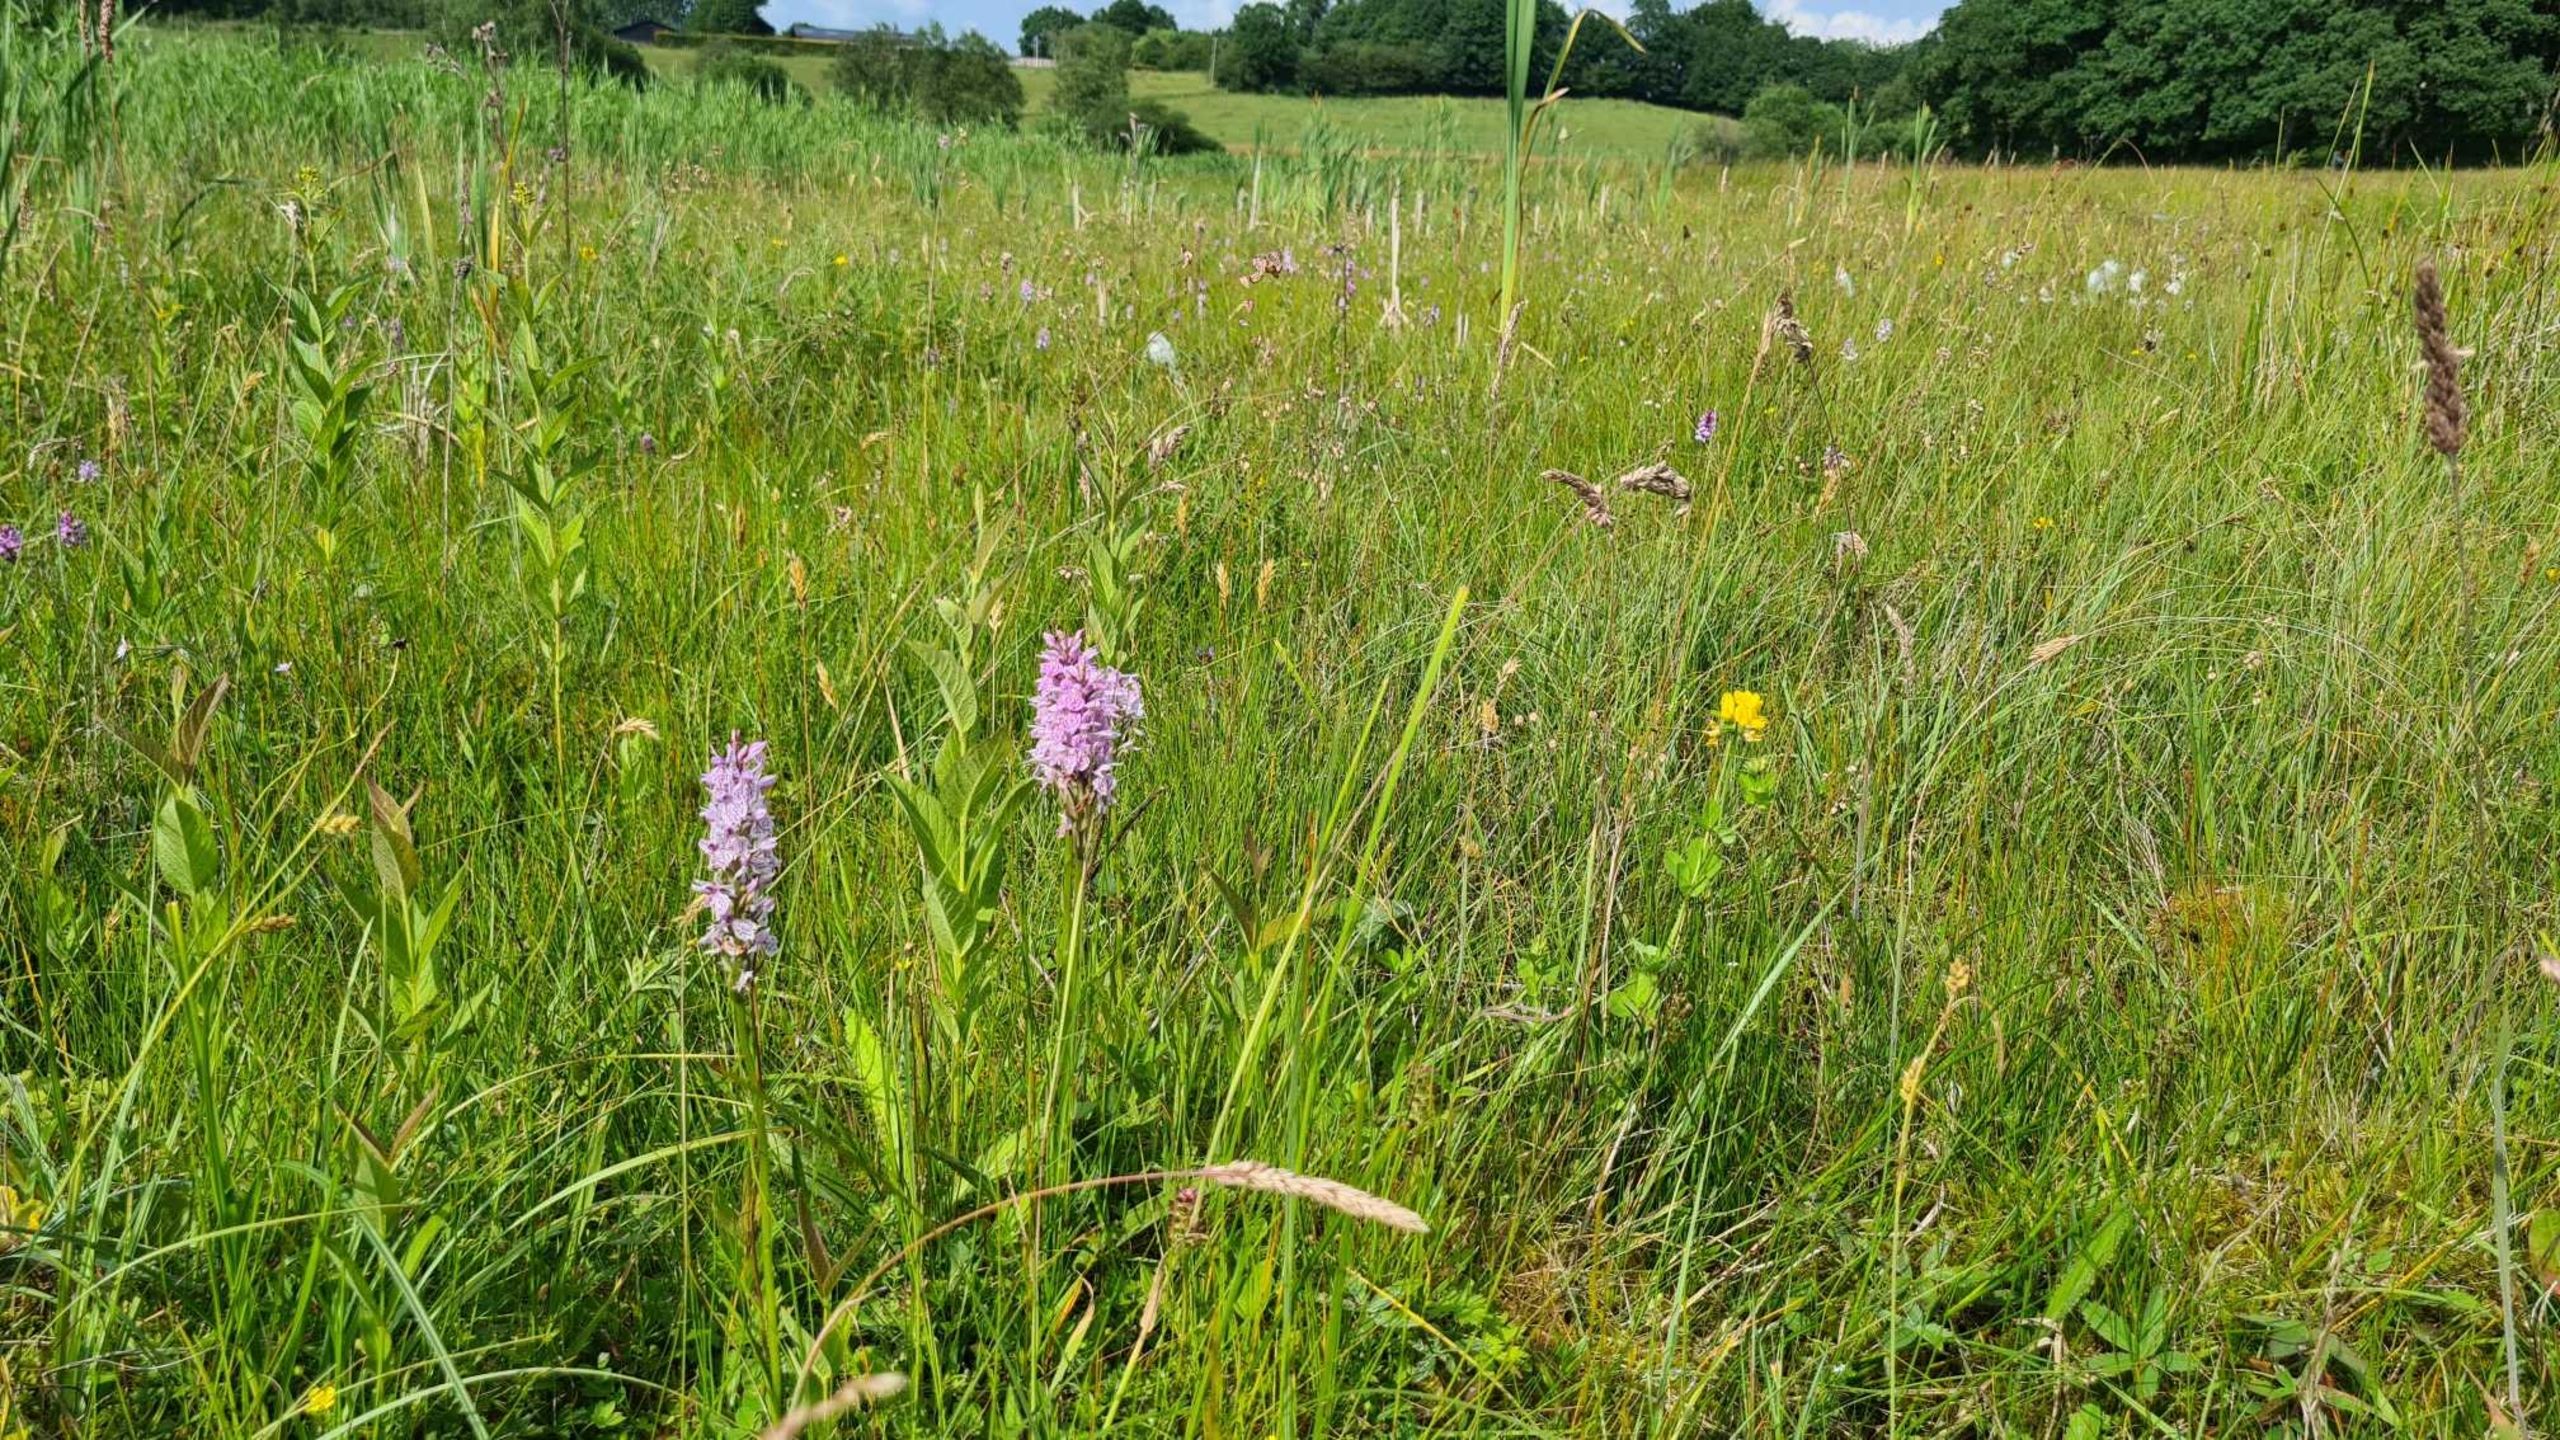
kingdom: Plantae
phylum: Tracheophyta
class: Liliopsida
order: Asparagales
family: Orchidaceae
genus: Dactylorhiza
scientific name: Dactylorhiza maculata
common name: Plettet gøgeurt
